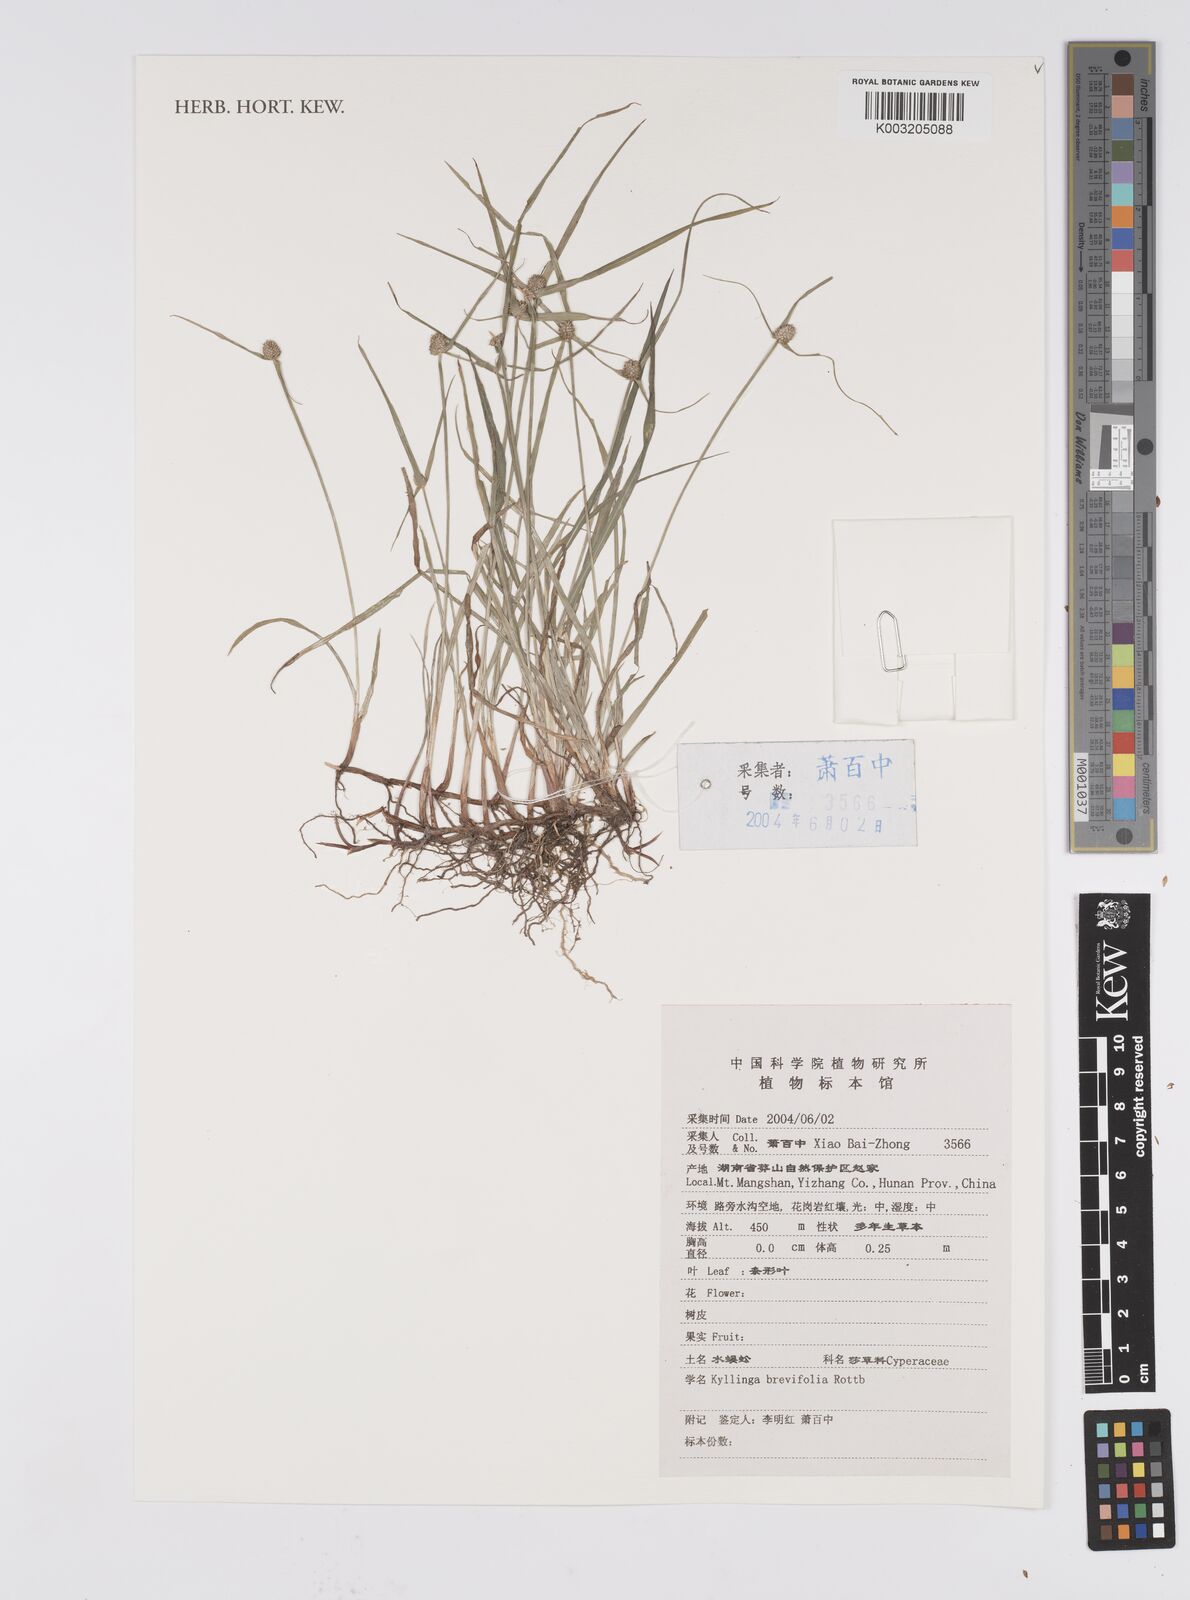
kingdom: Plantae
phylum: Tracheophyta
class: Liliopsida
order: Poales
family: Cyperaceae
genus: Cyperus
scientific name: Cyperus brevifolius
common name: Globe kyllinga
